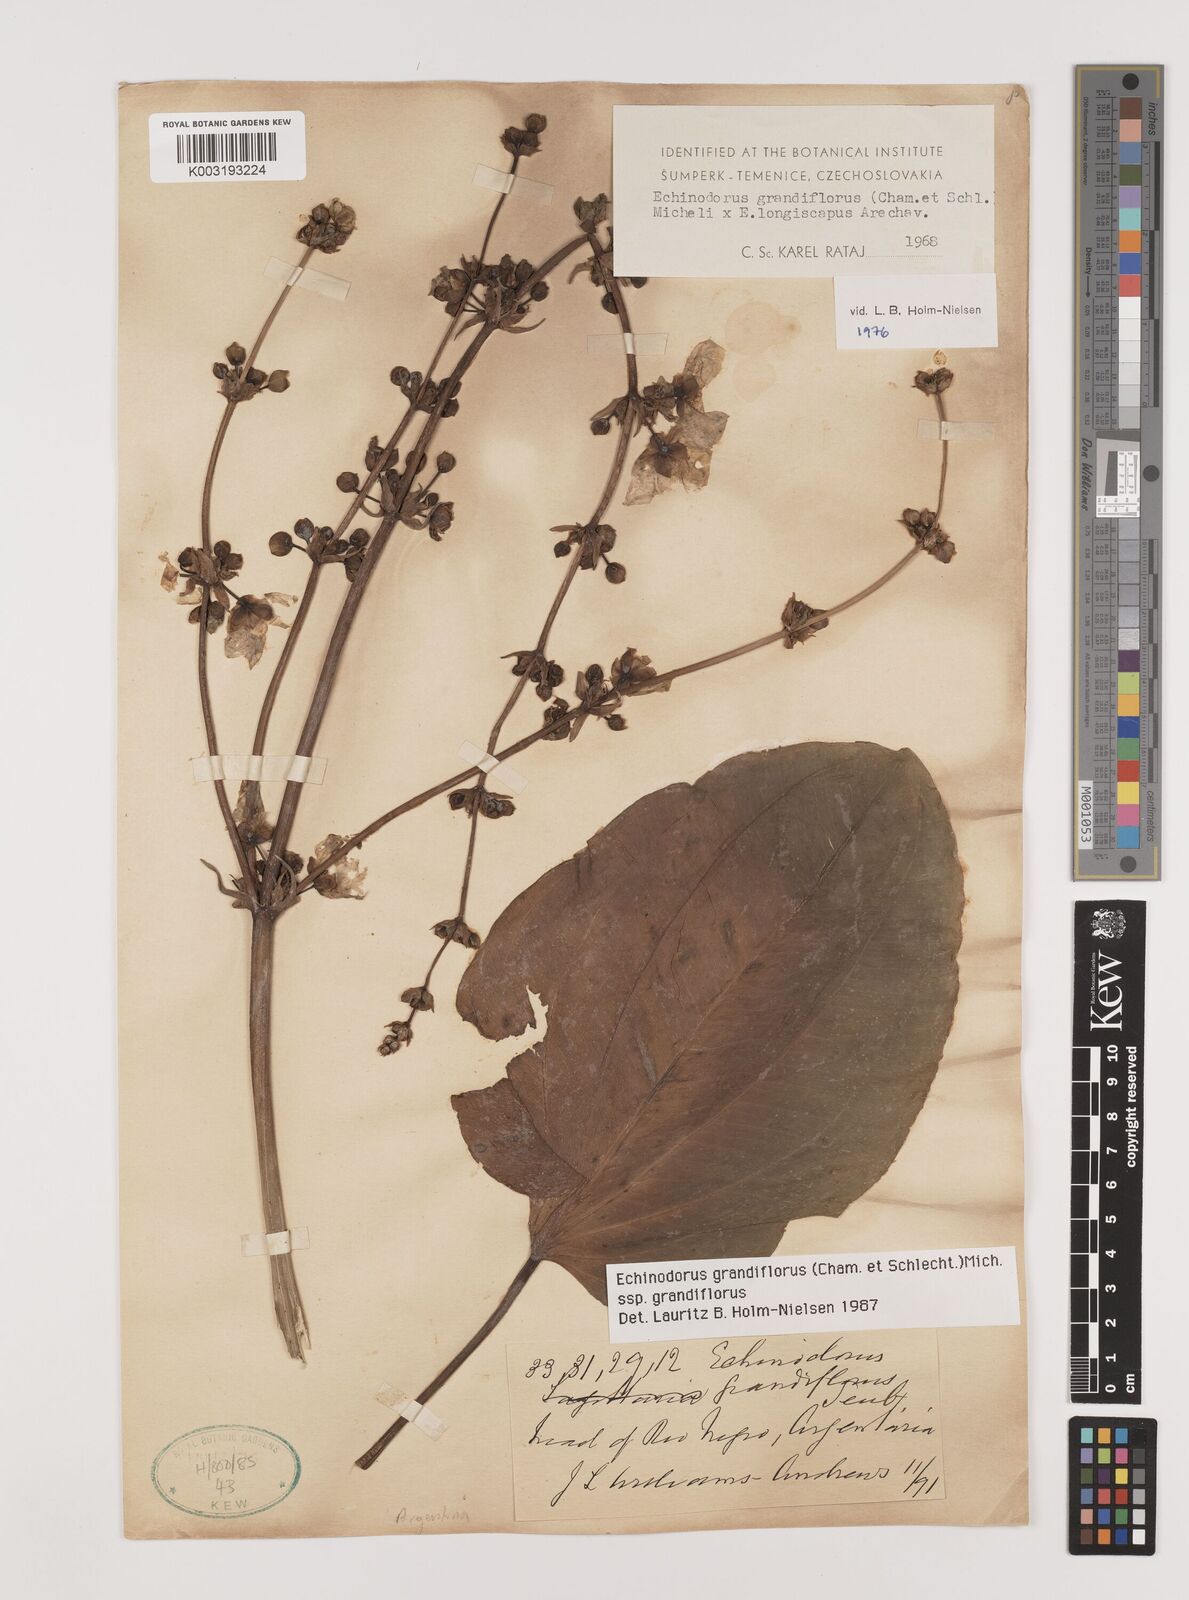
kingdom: Plantae
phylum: Tracheophyta
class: Liliopsida
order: Alismatales
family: Alismataceae
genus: Aquarius
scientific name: Aquarius grandiflorus
